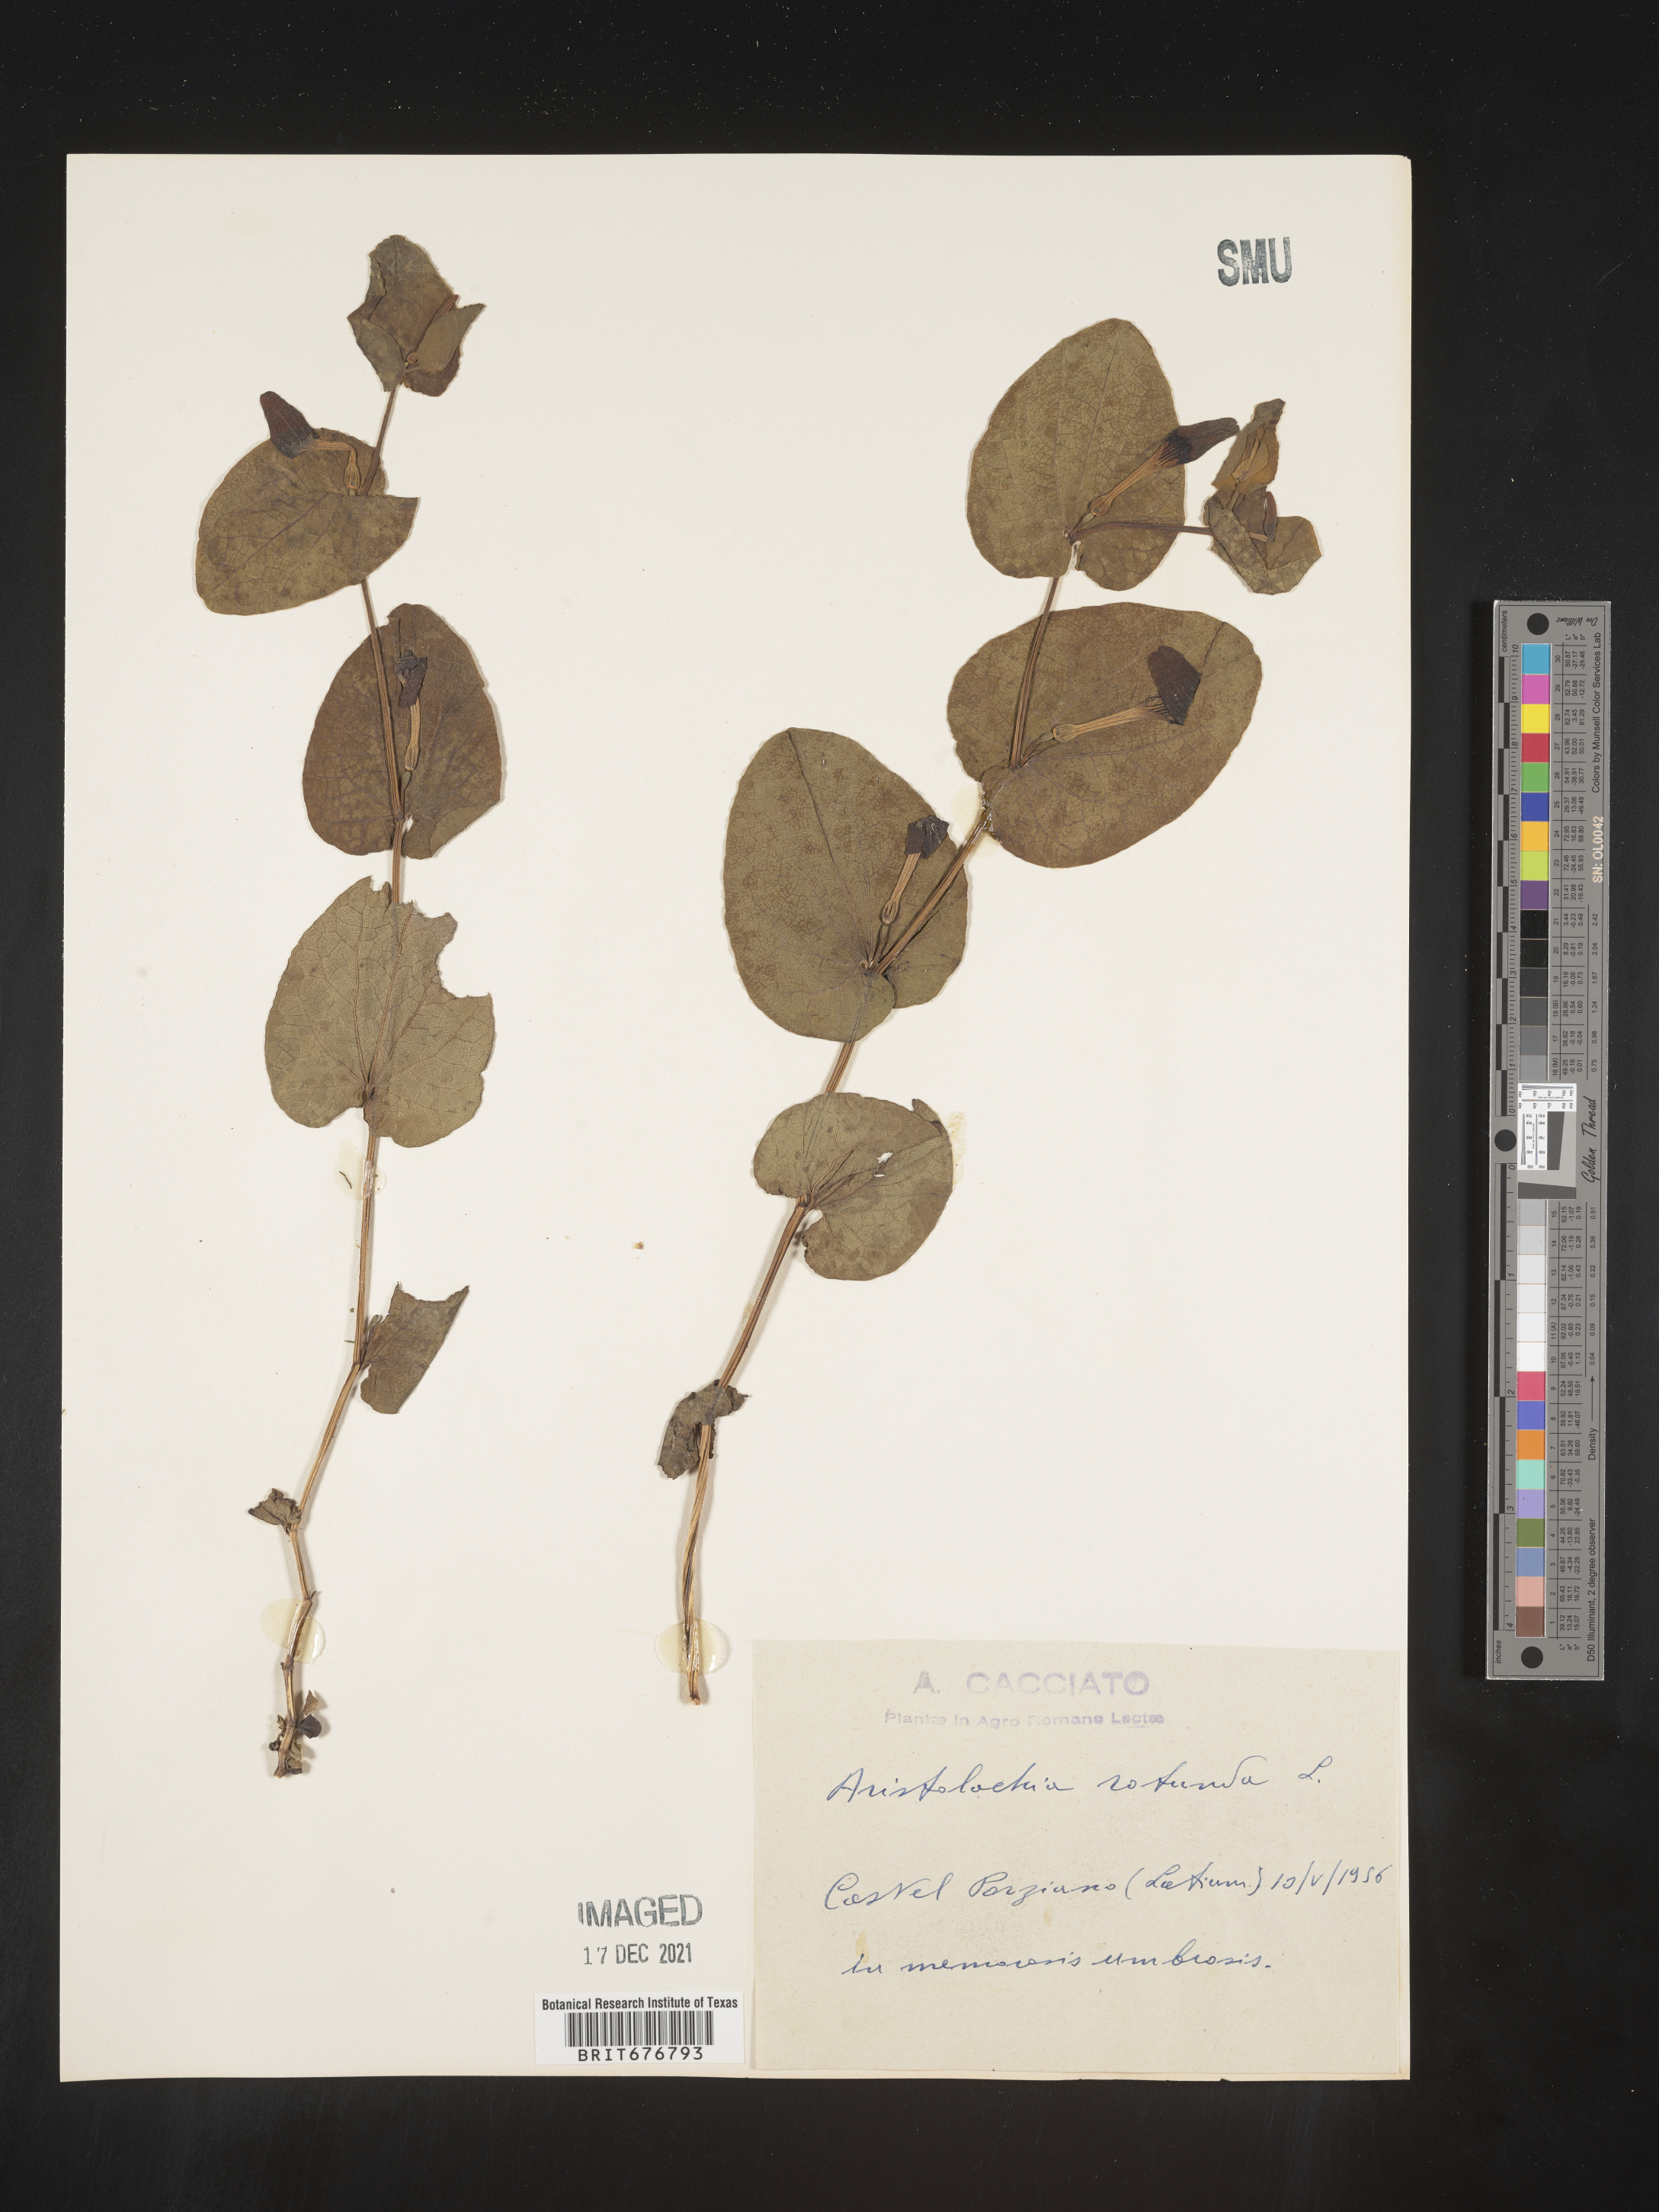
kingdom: Plantae
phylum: Tracheophyta
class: Magnoliopsida
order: Piperales
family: Aristolochiaceae
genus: Aristolochia
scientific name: Aristolochia
